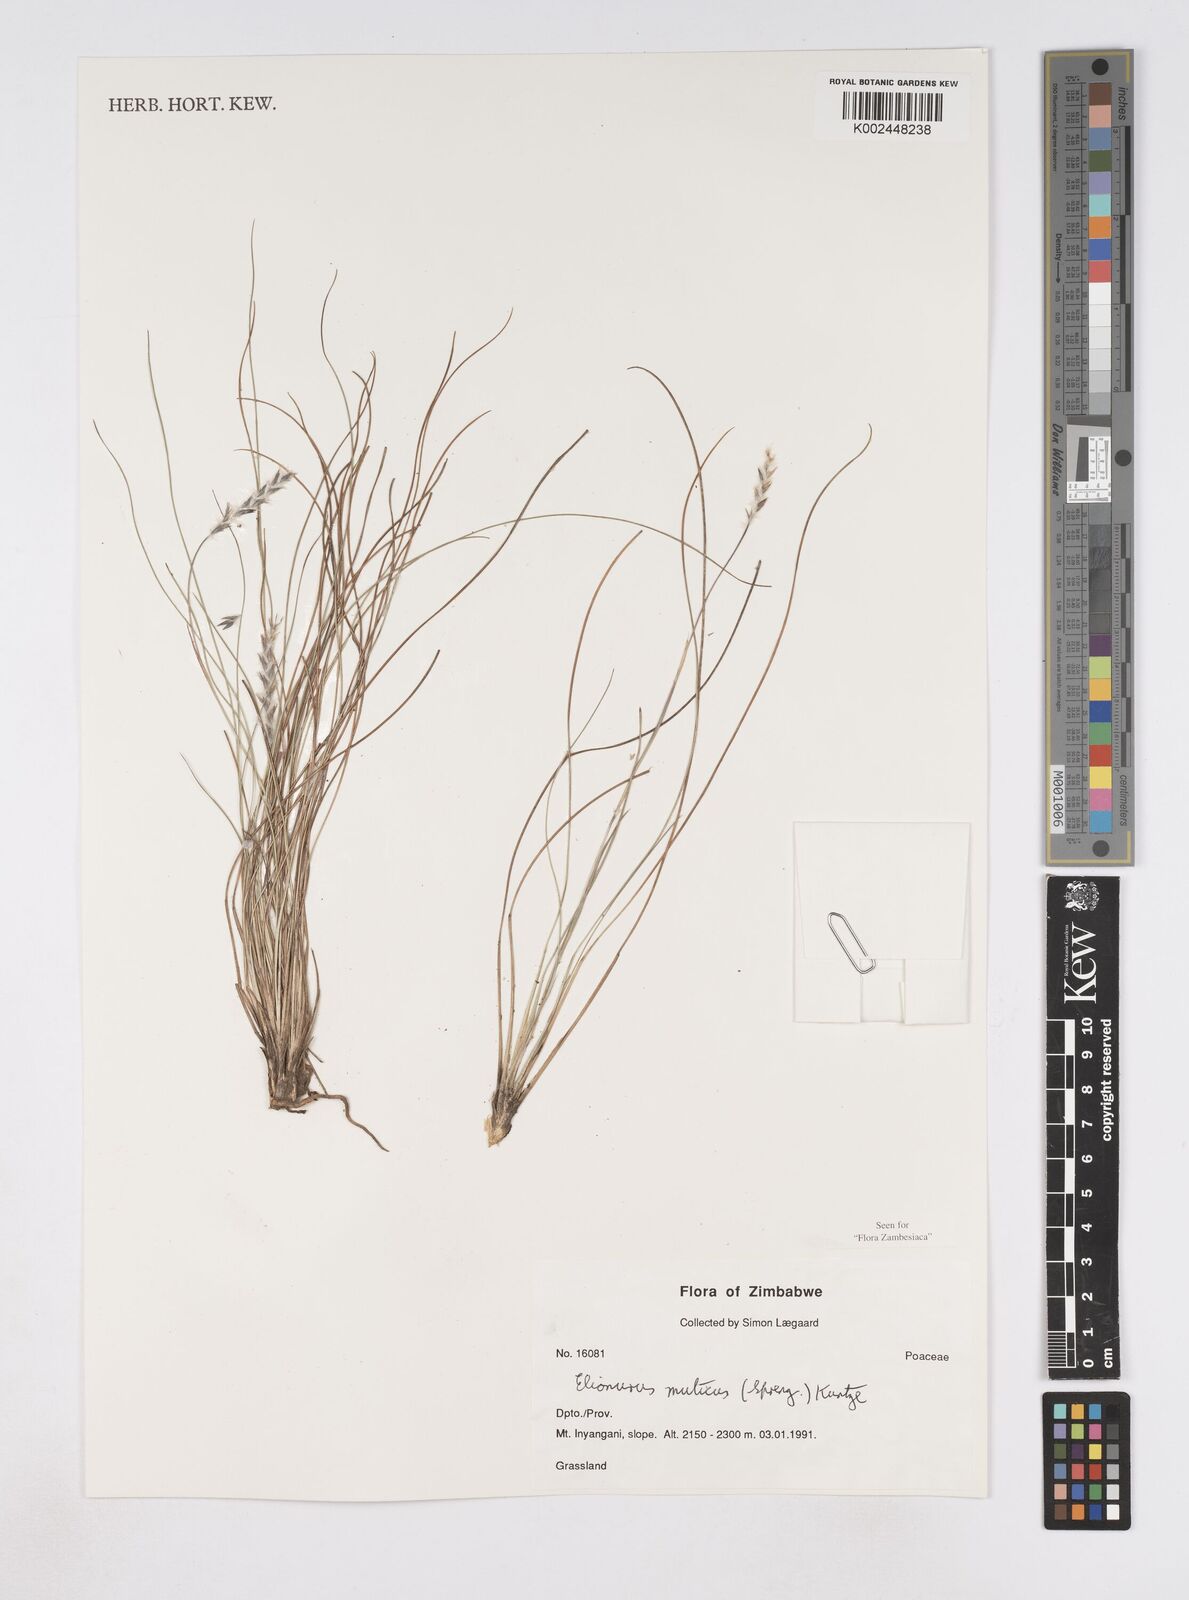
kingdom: Plantae
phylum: Tracheophyta
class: Liliopsida
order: Poales
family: Poaceae
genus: Elionurus
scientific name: Elionurus muticus
